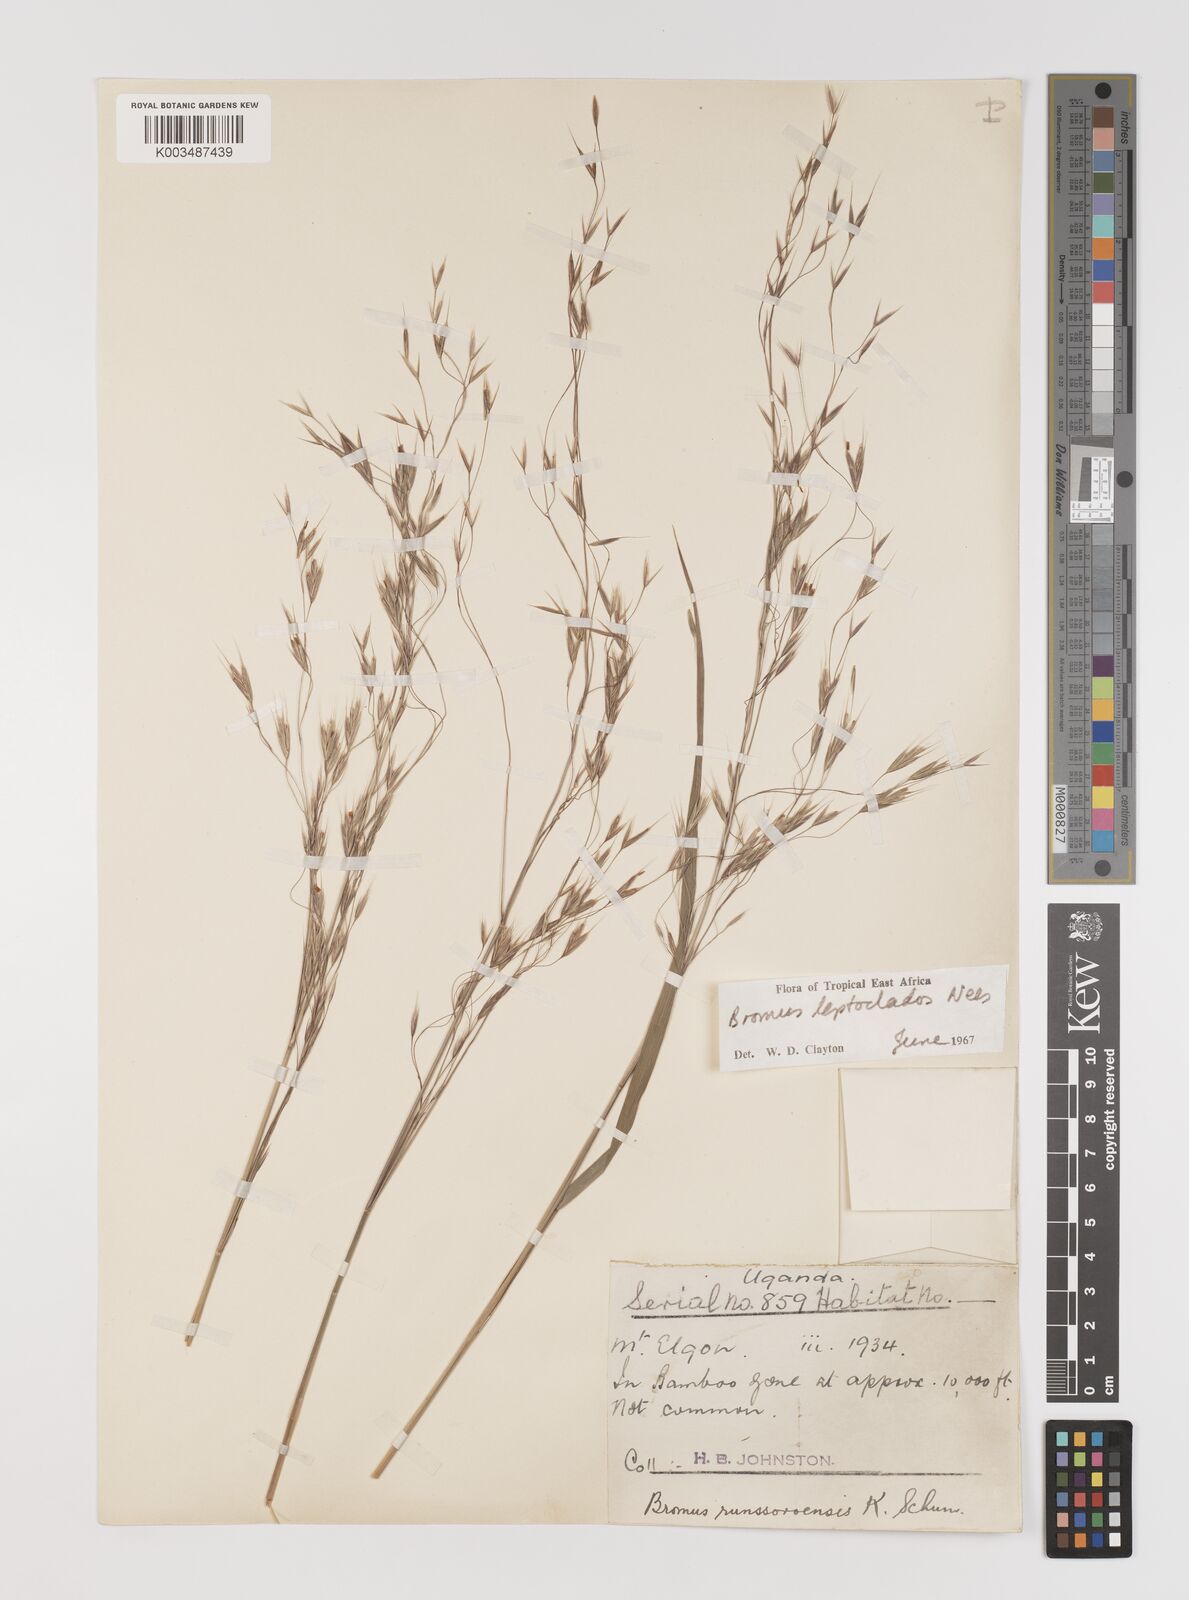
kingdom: Plantae
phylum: Tracheophyta
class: Liliopsida
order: Poales
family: Poaceae
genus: Bromus
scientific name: Bromus leptoclados
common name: Mountain bromegrass
